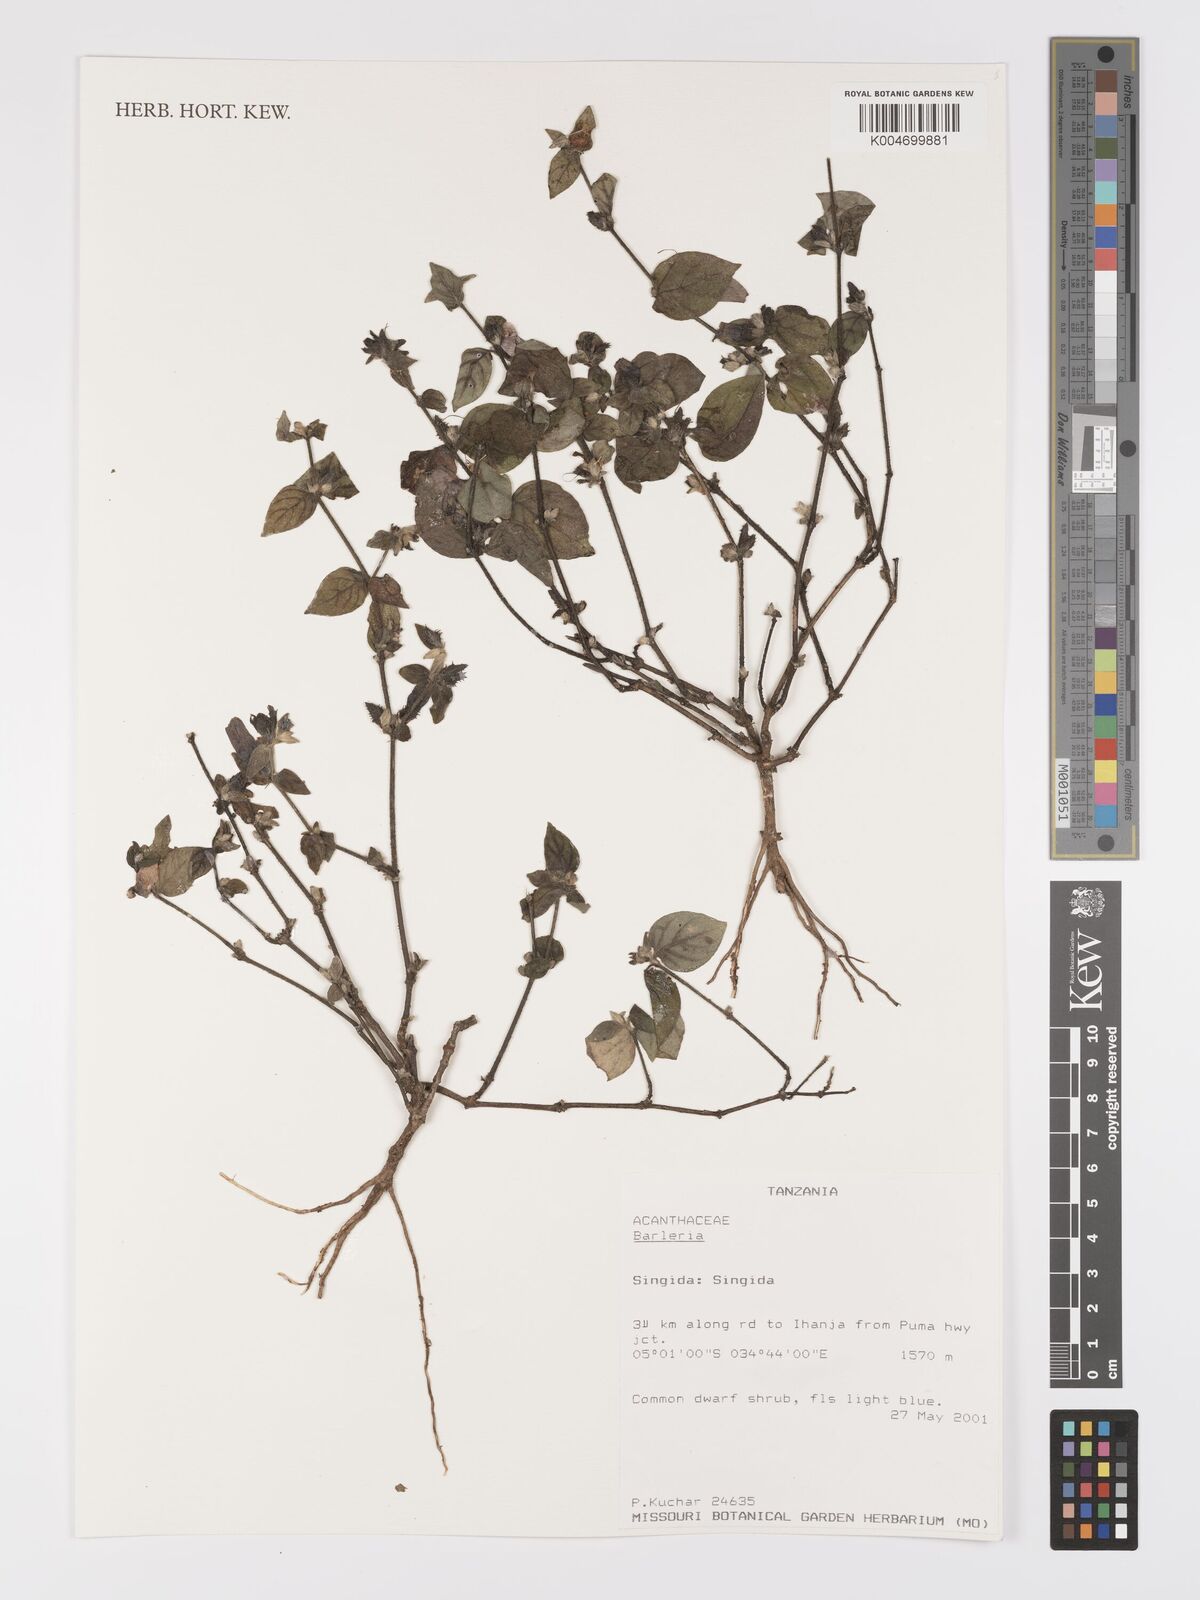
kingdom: Plantae
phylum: Tracheophyta
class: Magnoliopsida
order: Lamiales
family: Acanthaceae
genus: Barleria
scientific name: Barleria ventricosa
